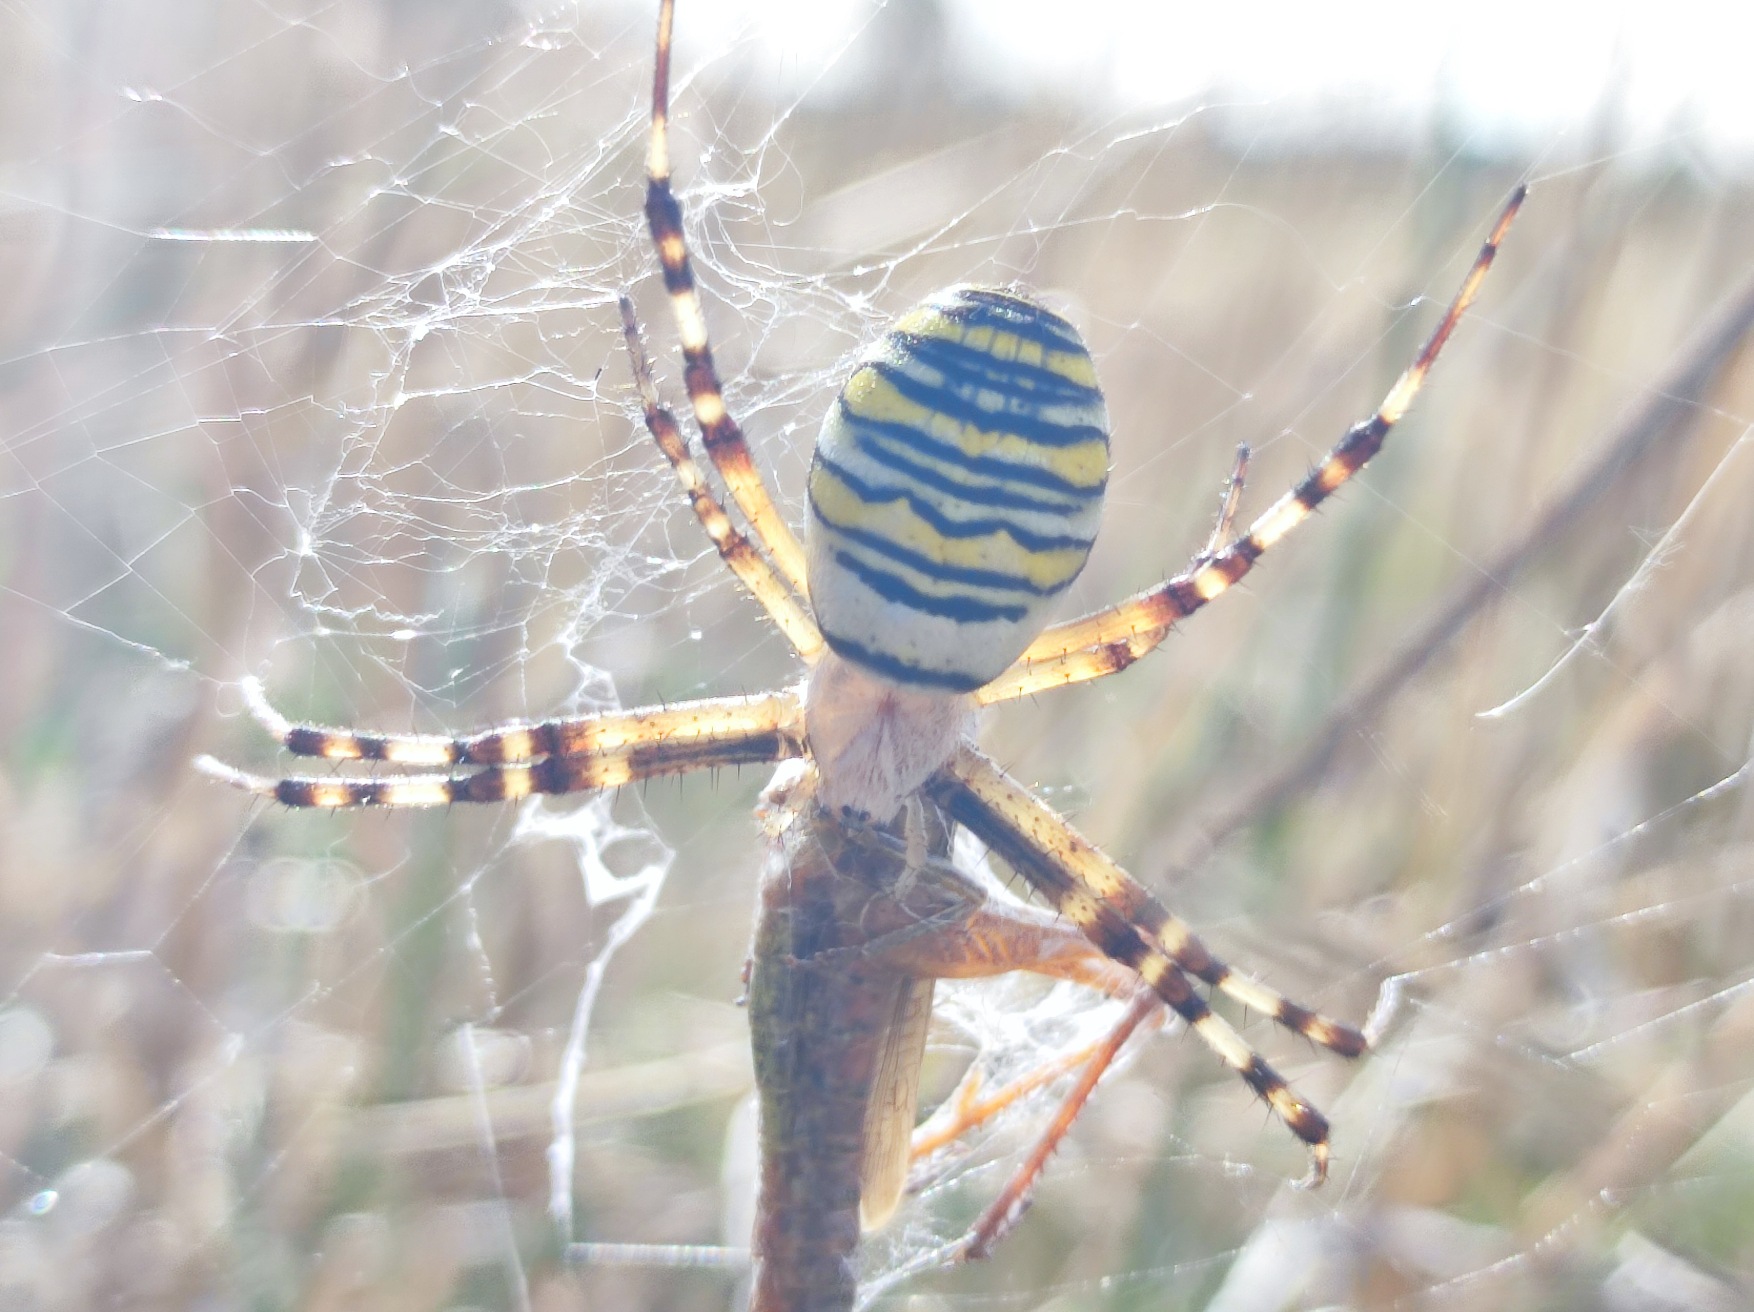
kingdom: Animalia
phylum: Arthropoda
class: Arachnida
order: Araneae
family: Araneidae
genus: Argiope
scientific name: Argiope bruennichi
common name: Hvepseedderkop
